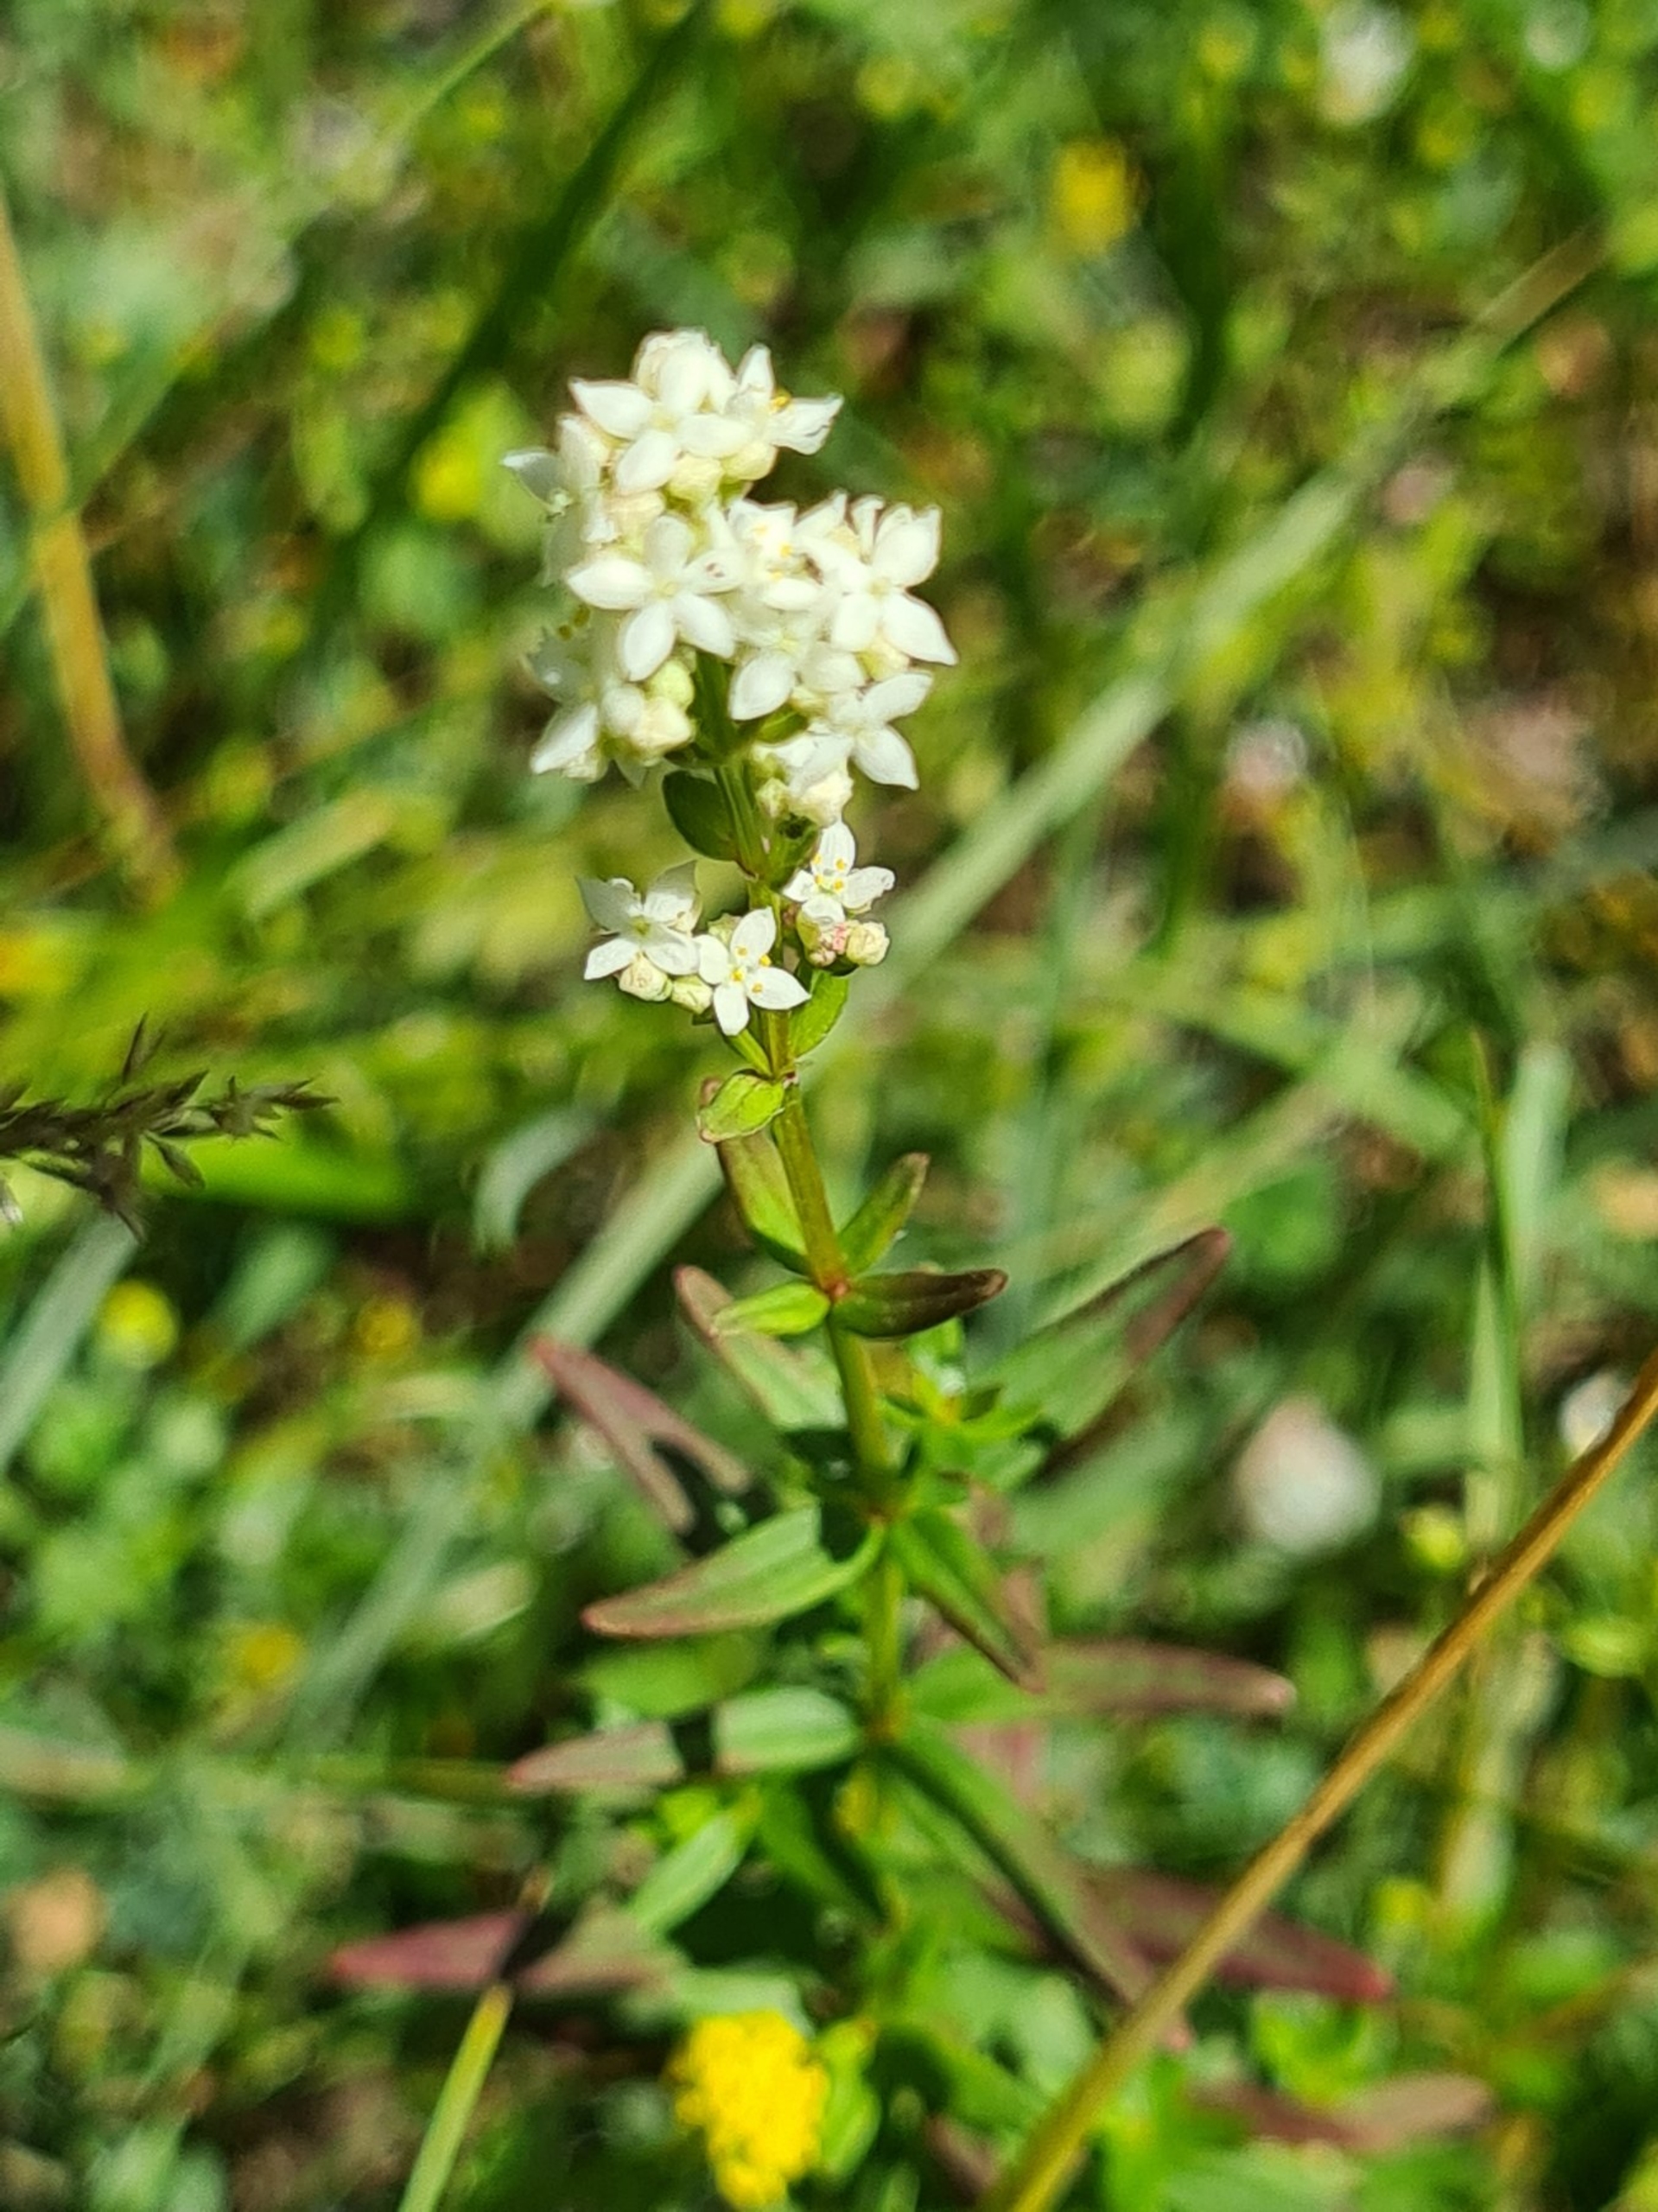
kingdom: Plantae
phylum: Tracheophyta
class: Magnoliopsida
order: Gentianales
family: Rubiaceae
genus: Galium
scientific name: Galium boreale
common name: Trenervet snerre
